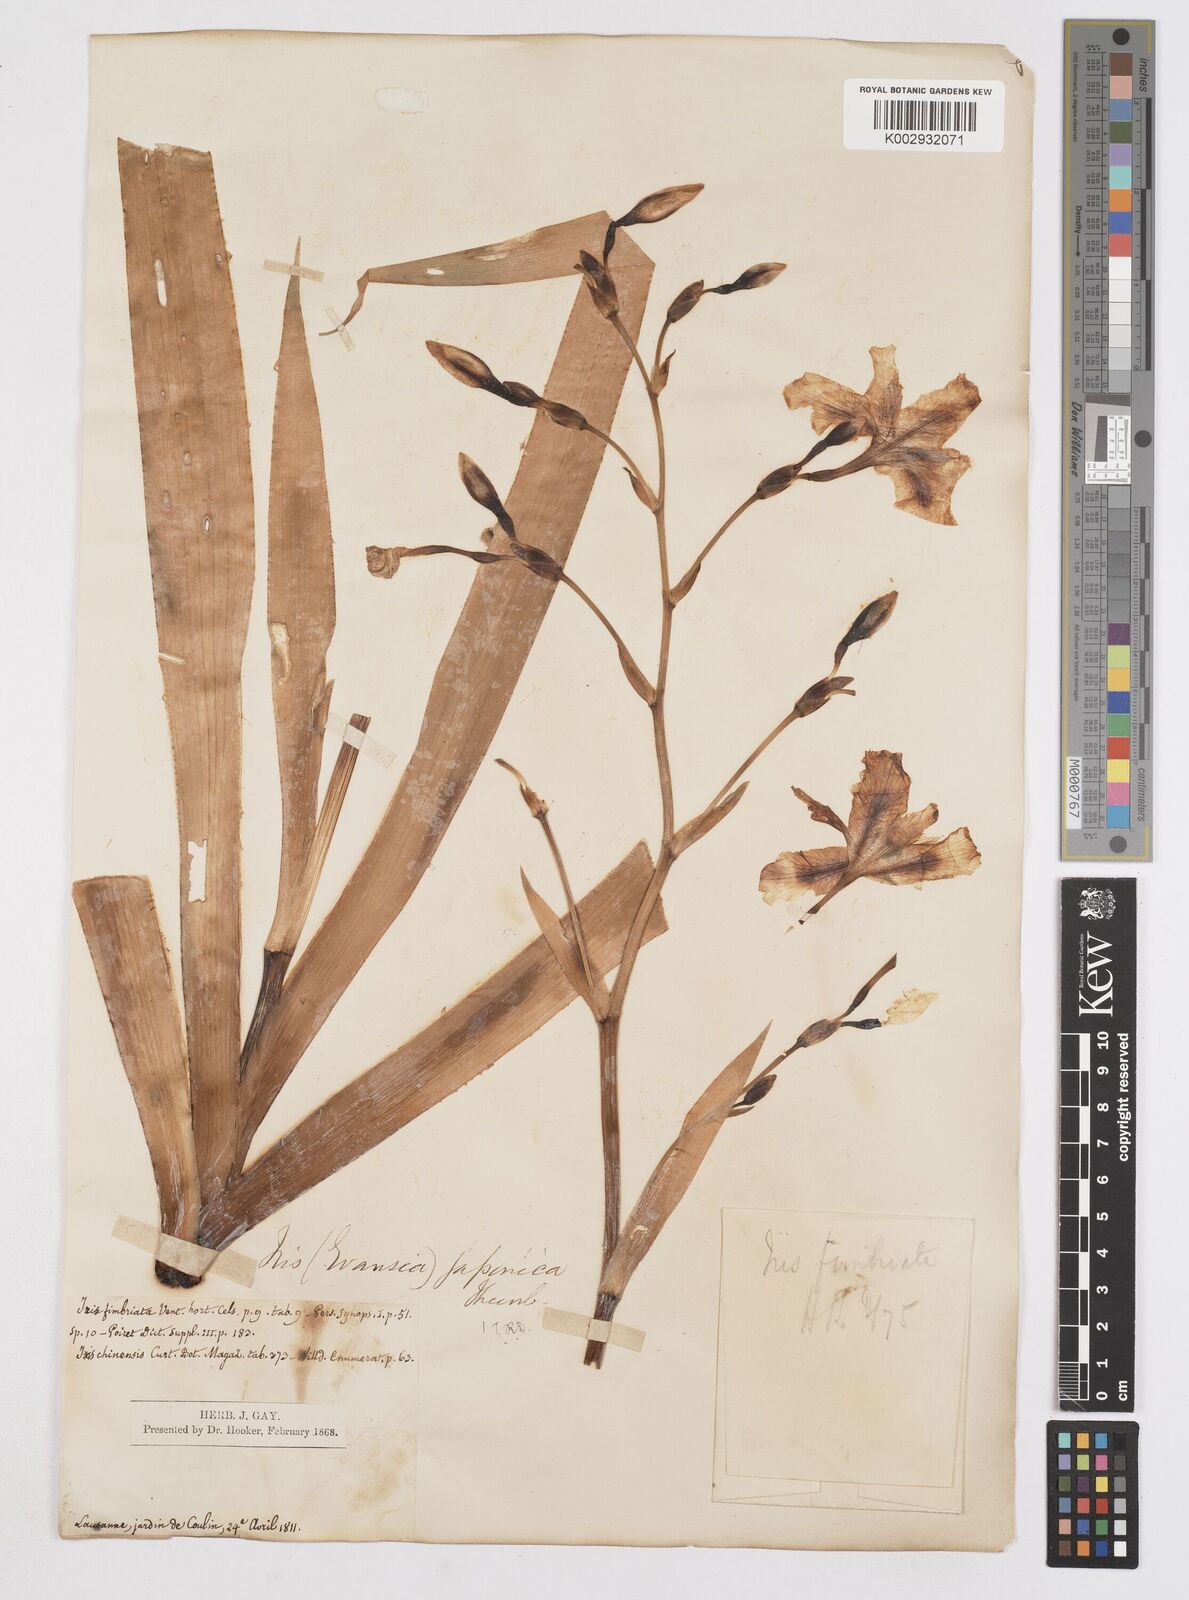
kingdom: Plantae
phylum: Tracheophyta
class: Liliopsida
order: Asparagales
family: Iridaceae
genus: Iris
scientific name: Iris japonica
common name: Butterfly-flower
